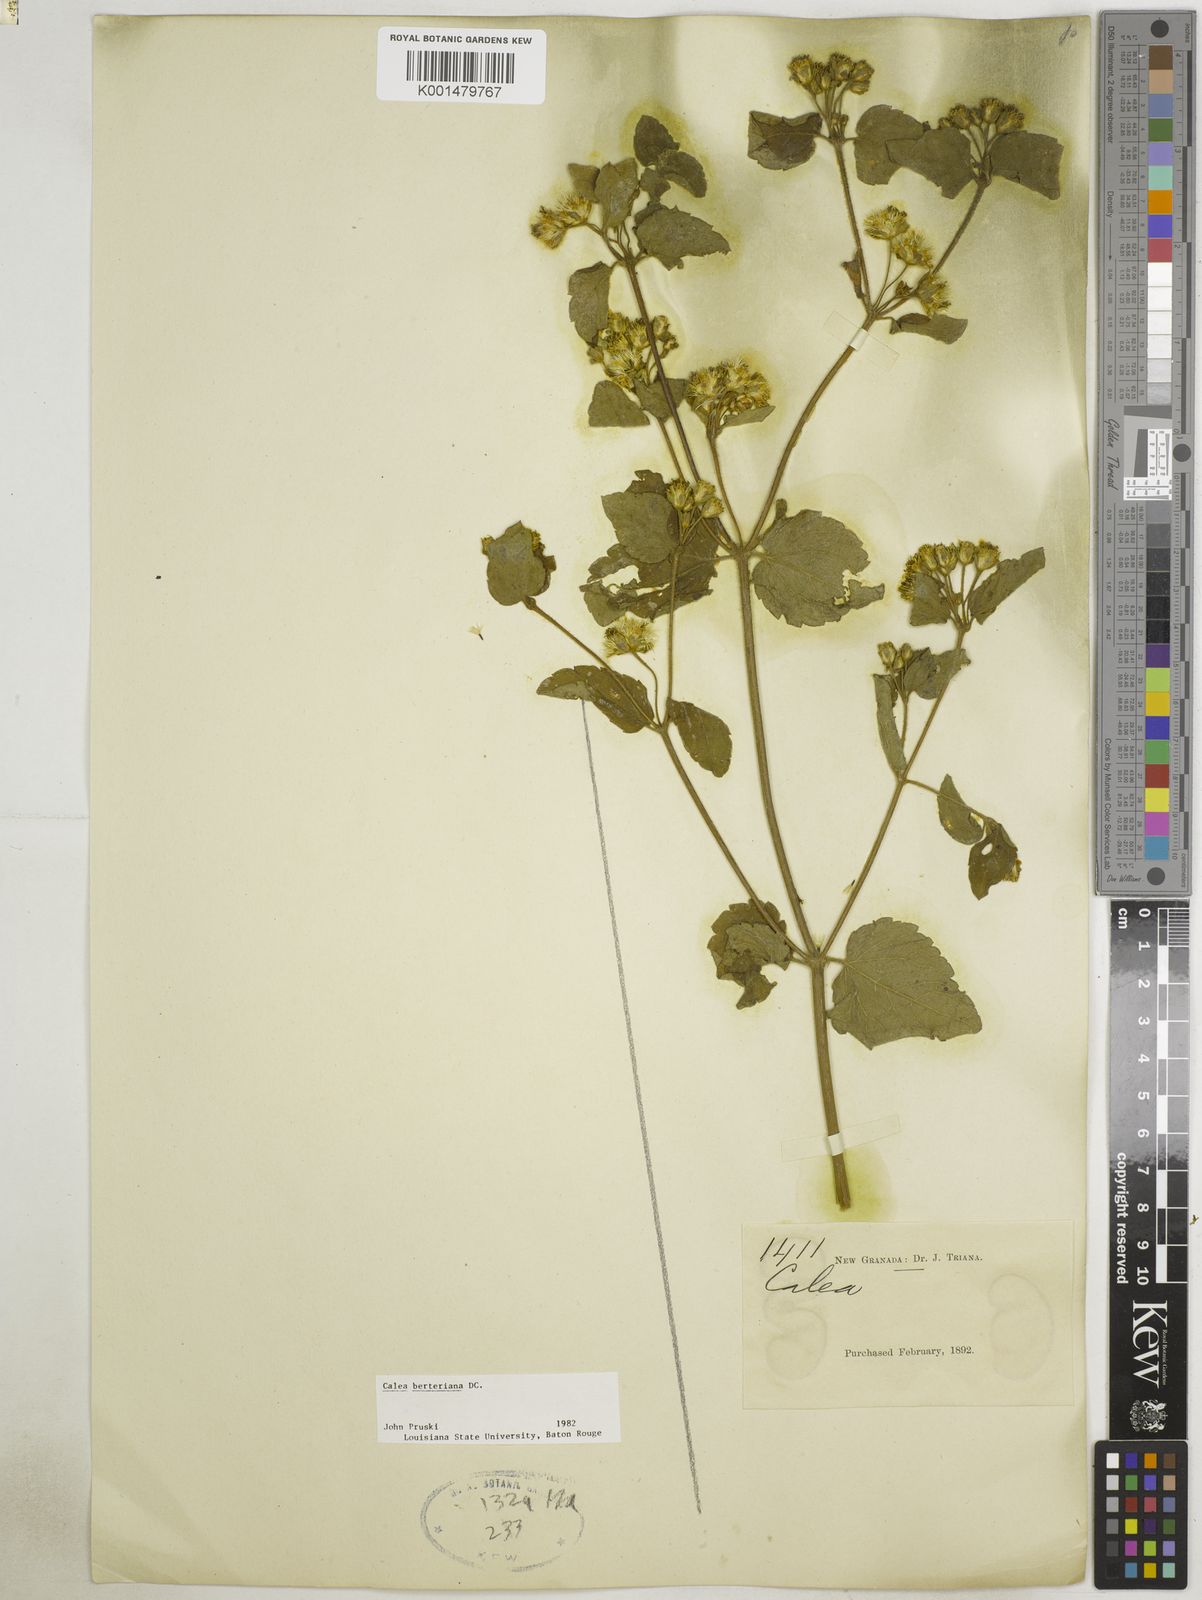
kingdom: Plantae
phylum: Tracheophyta
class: Magnoliopsida
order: Asterales
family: Asteraceae
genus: Calea
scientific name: Calea berteroana
